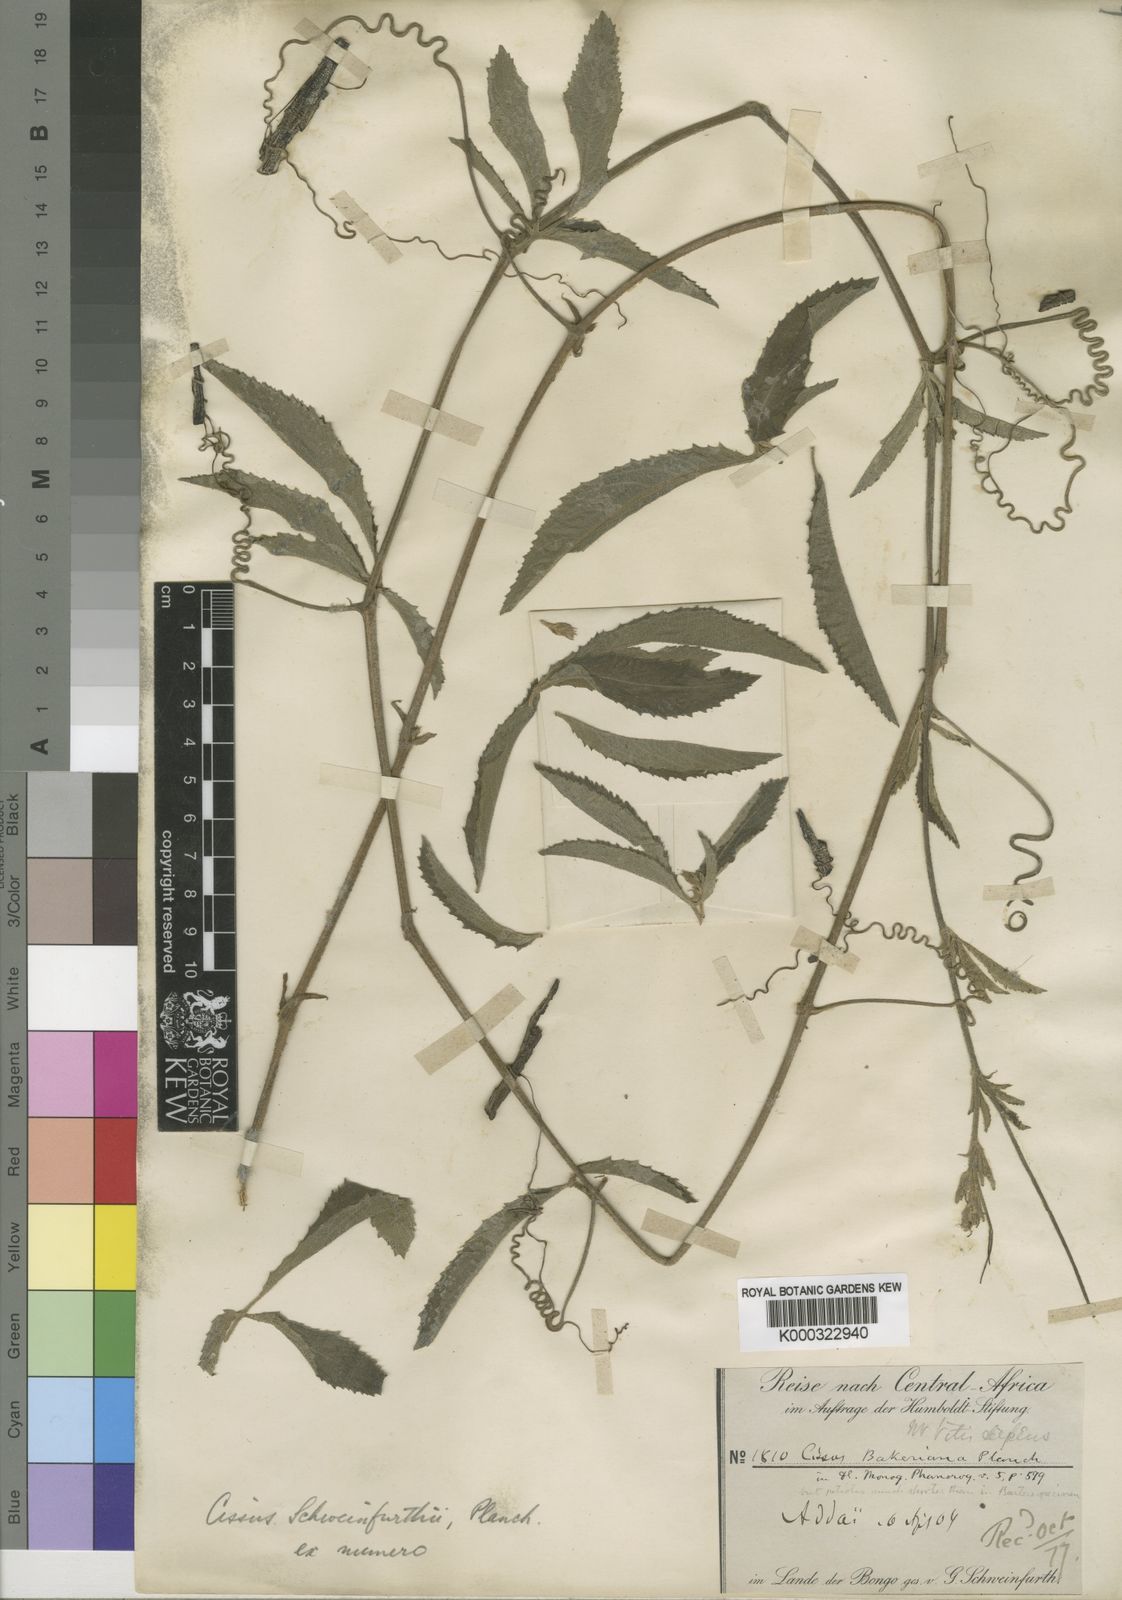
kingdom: Plantae
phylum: Tracheophyta
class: Magnoliopsida
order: Vitales
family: Vitaceae
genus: Cyphostemma
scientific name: Cyphostemma serpens
